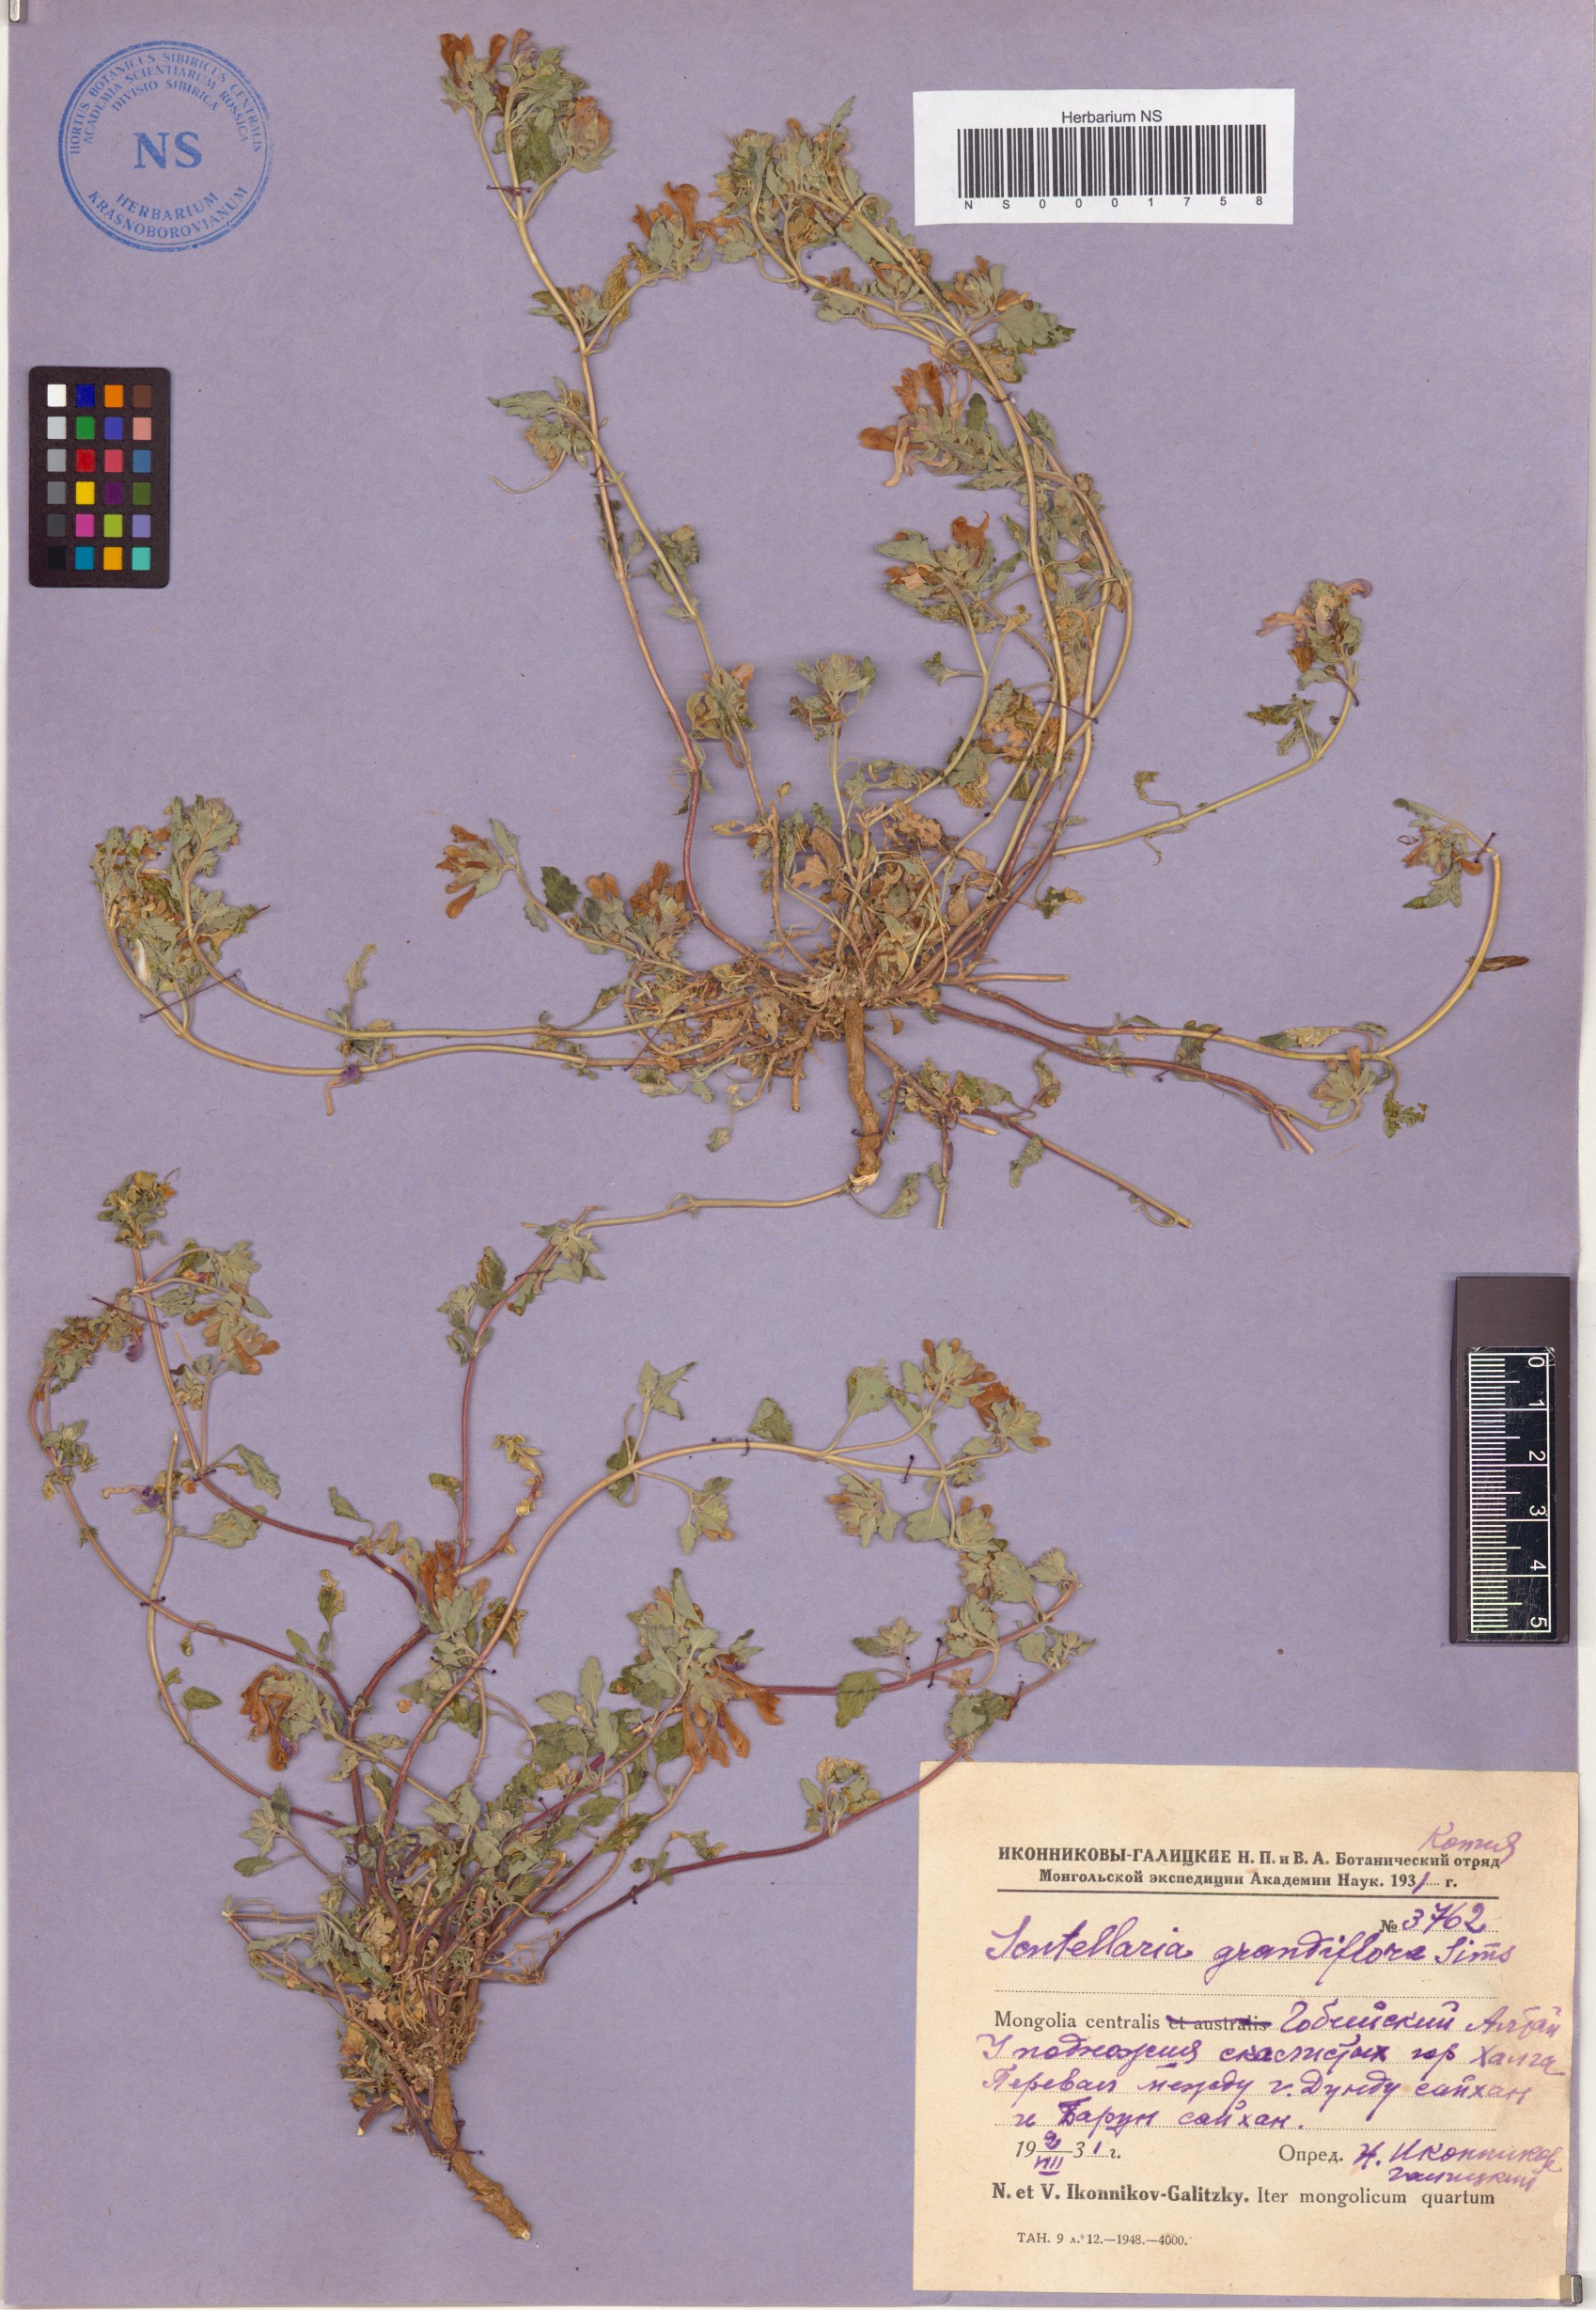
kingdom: Plantae
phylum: Tracheophyta
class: Magnoliopsida
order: Lamiales
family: Lamiaceae
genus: Scutellaria
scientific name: Scutellaria grandiflora
